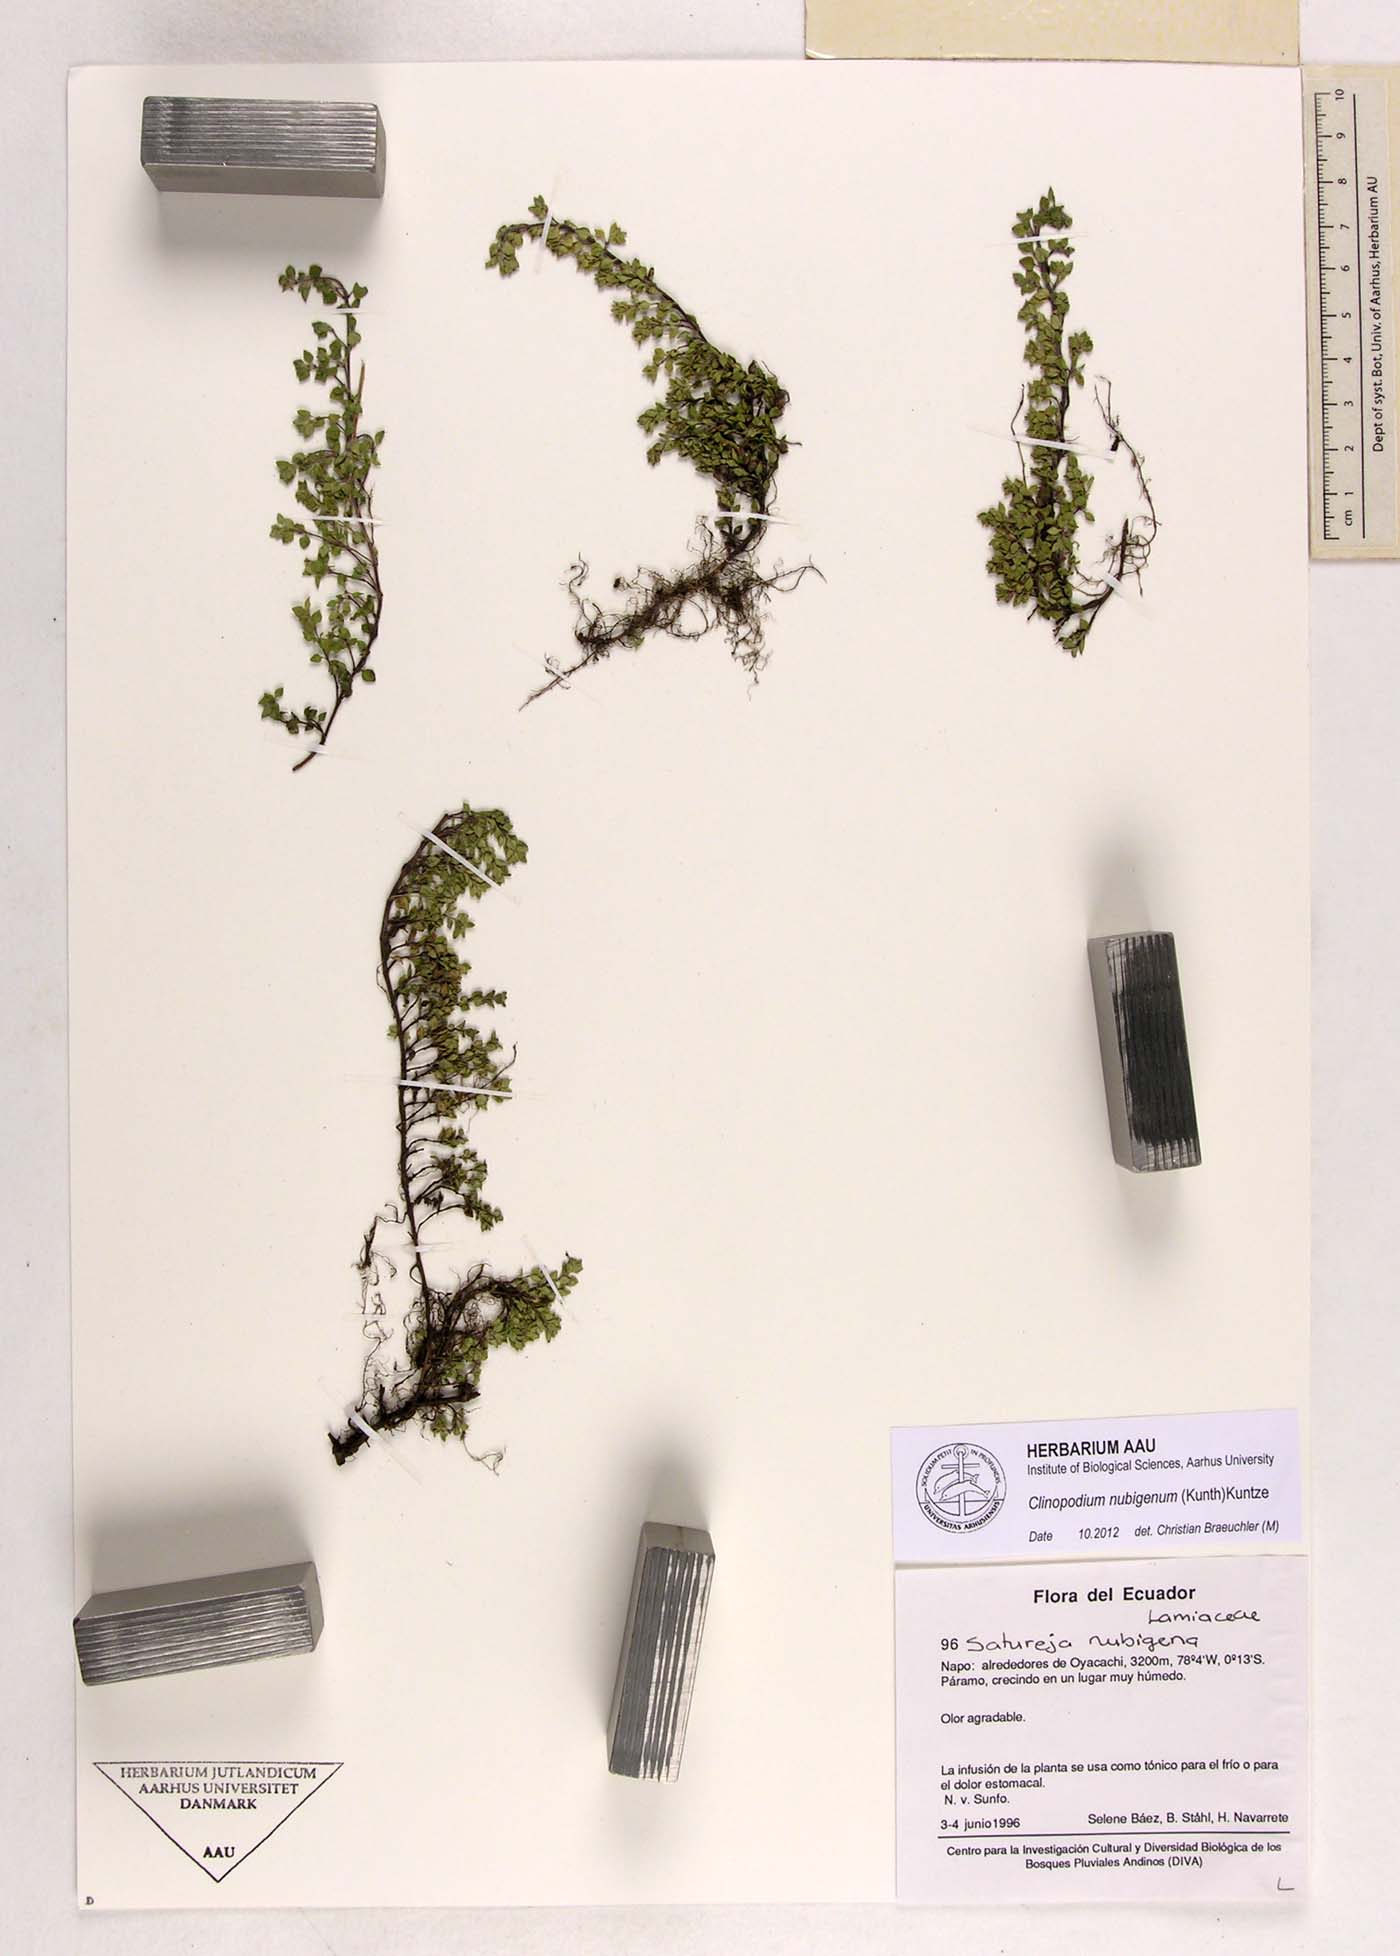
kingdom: Plantae
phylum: Tracheophyta
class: Magnoliopsida
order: Lamiales
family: Lamiaceae
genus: Clinopodium
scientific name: Clinopodium nubigenum
